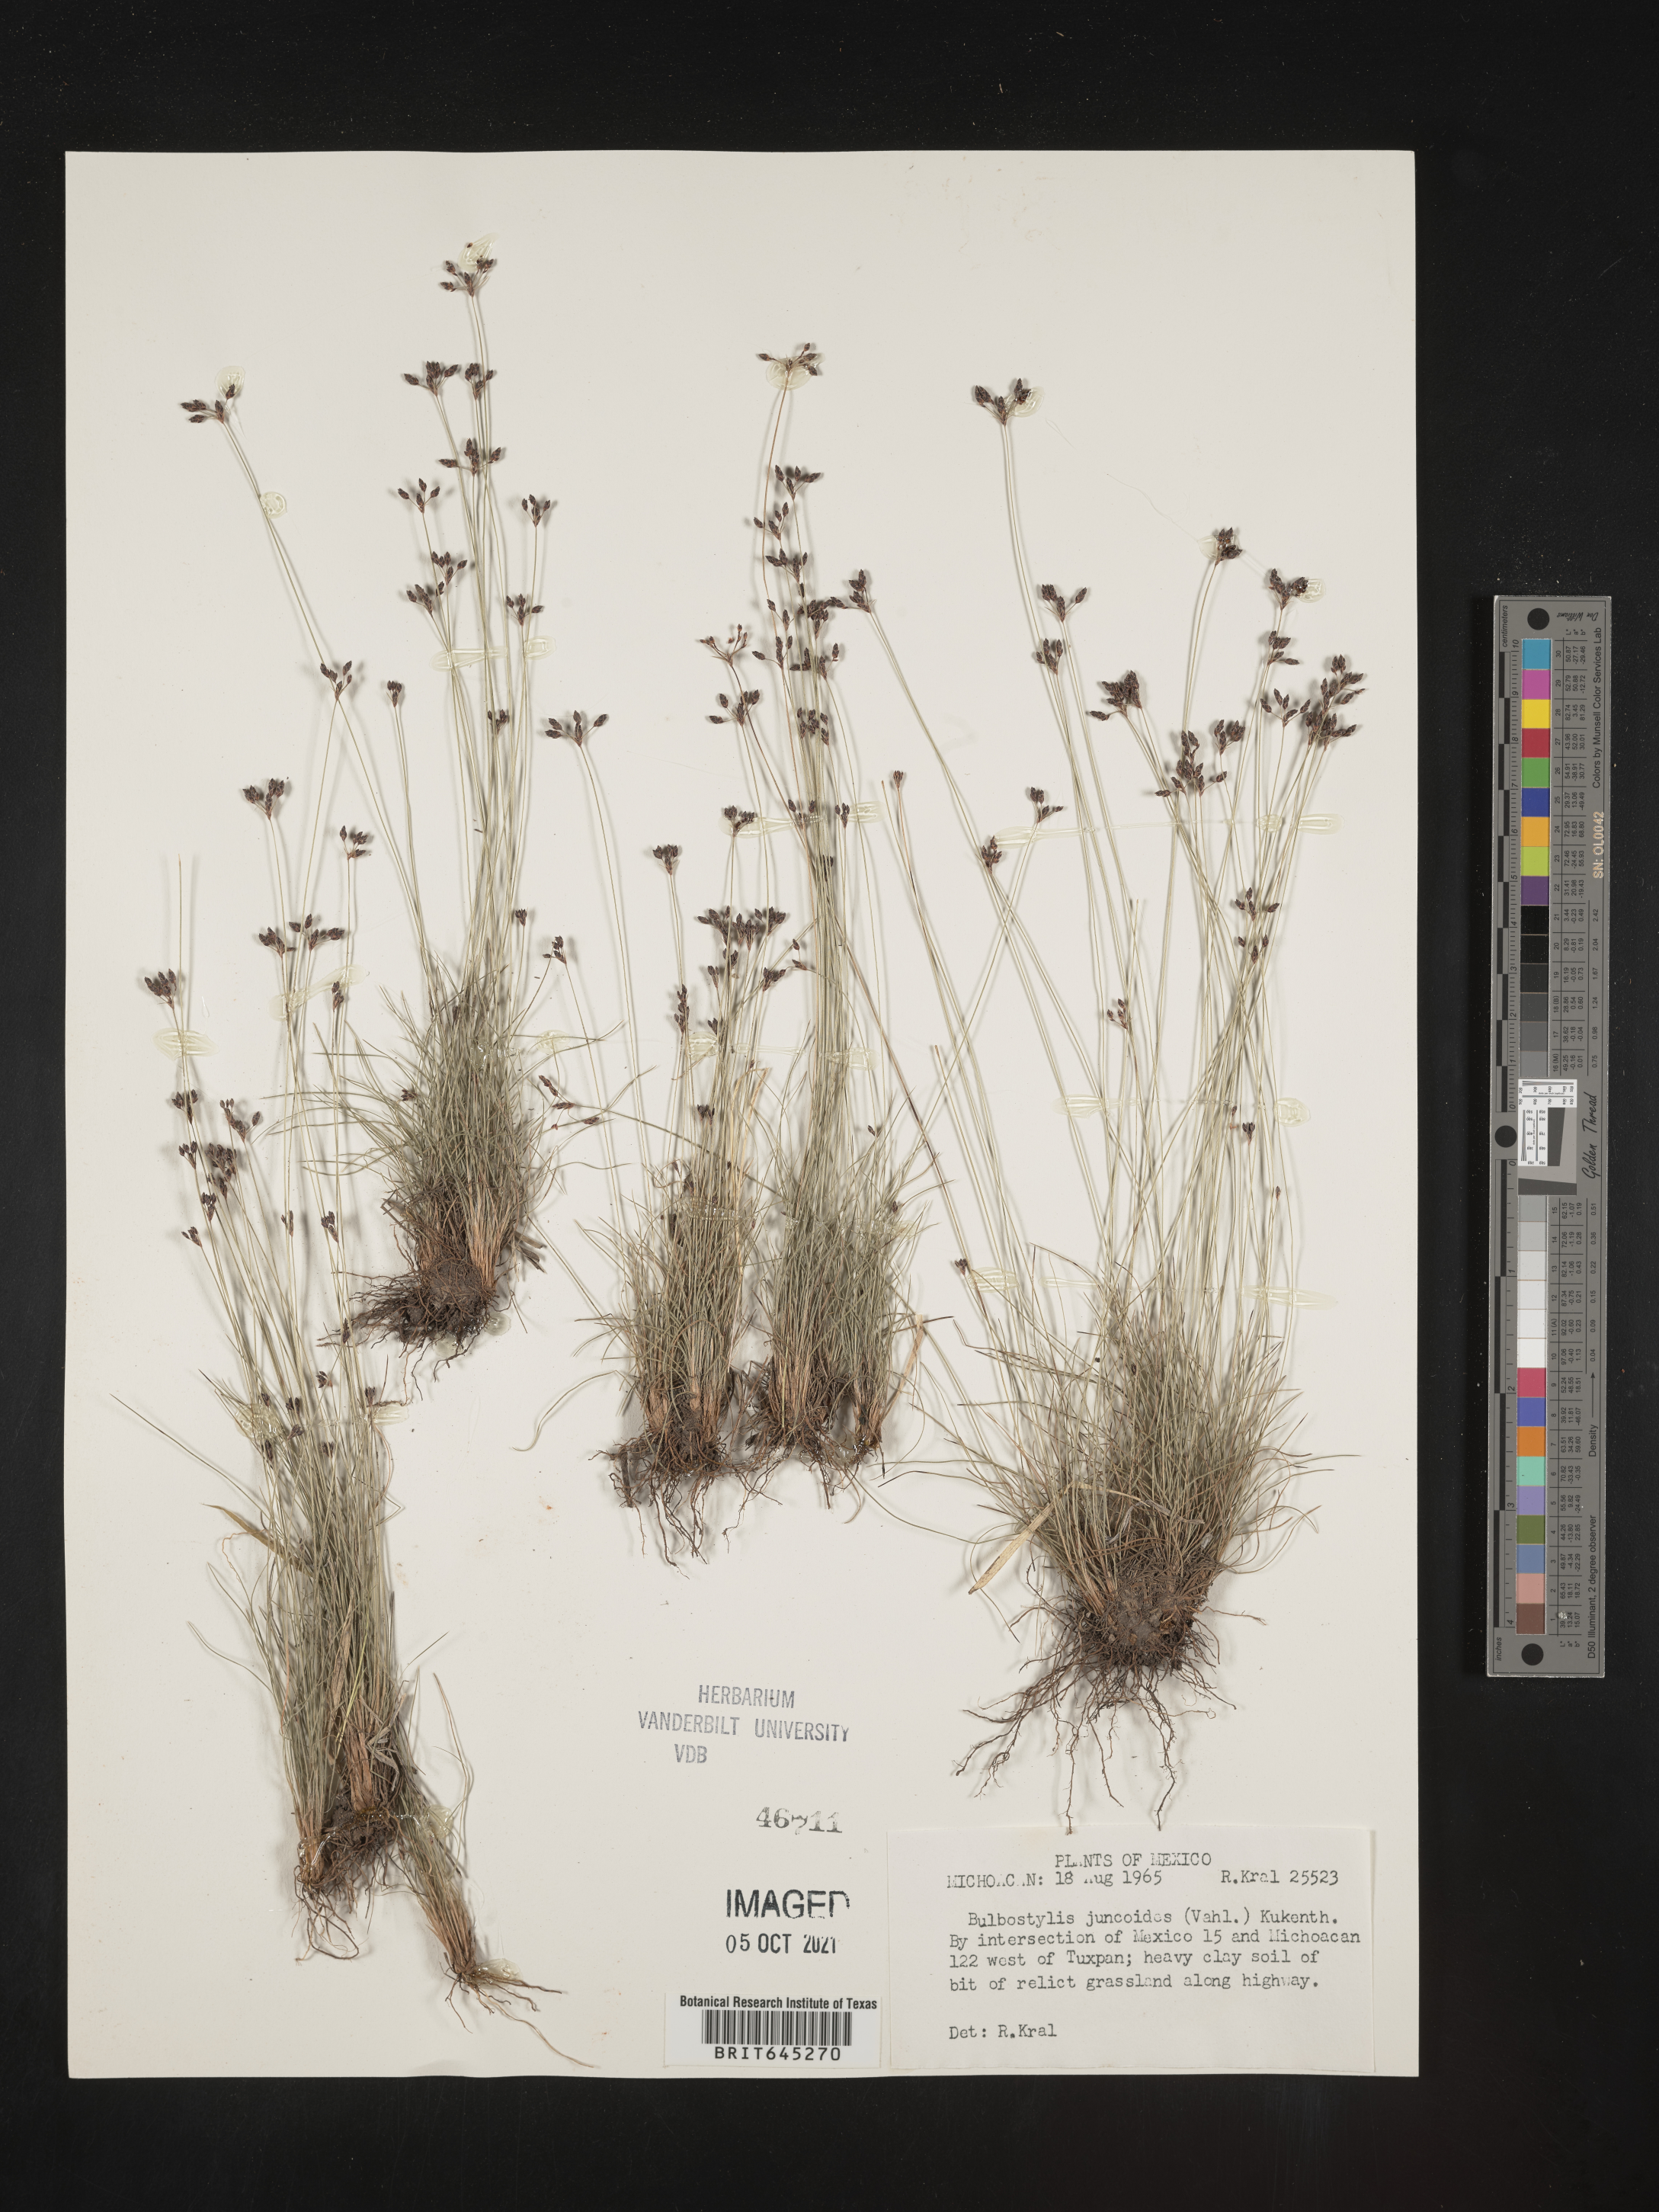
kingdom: Plantae
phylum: Tracheophyta
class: Liliopsida
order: Poales
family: Cyperaceae
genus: Bulbostylis
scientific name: Bulbostylis juncoides
